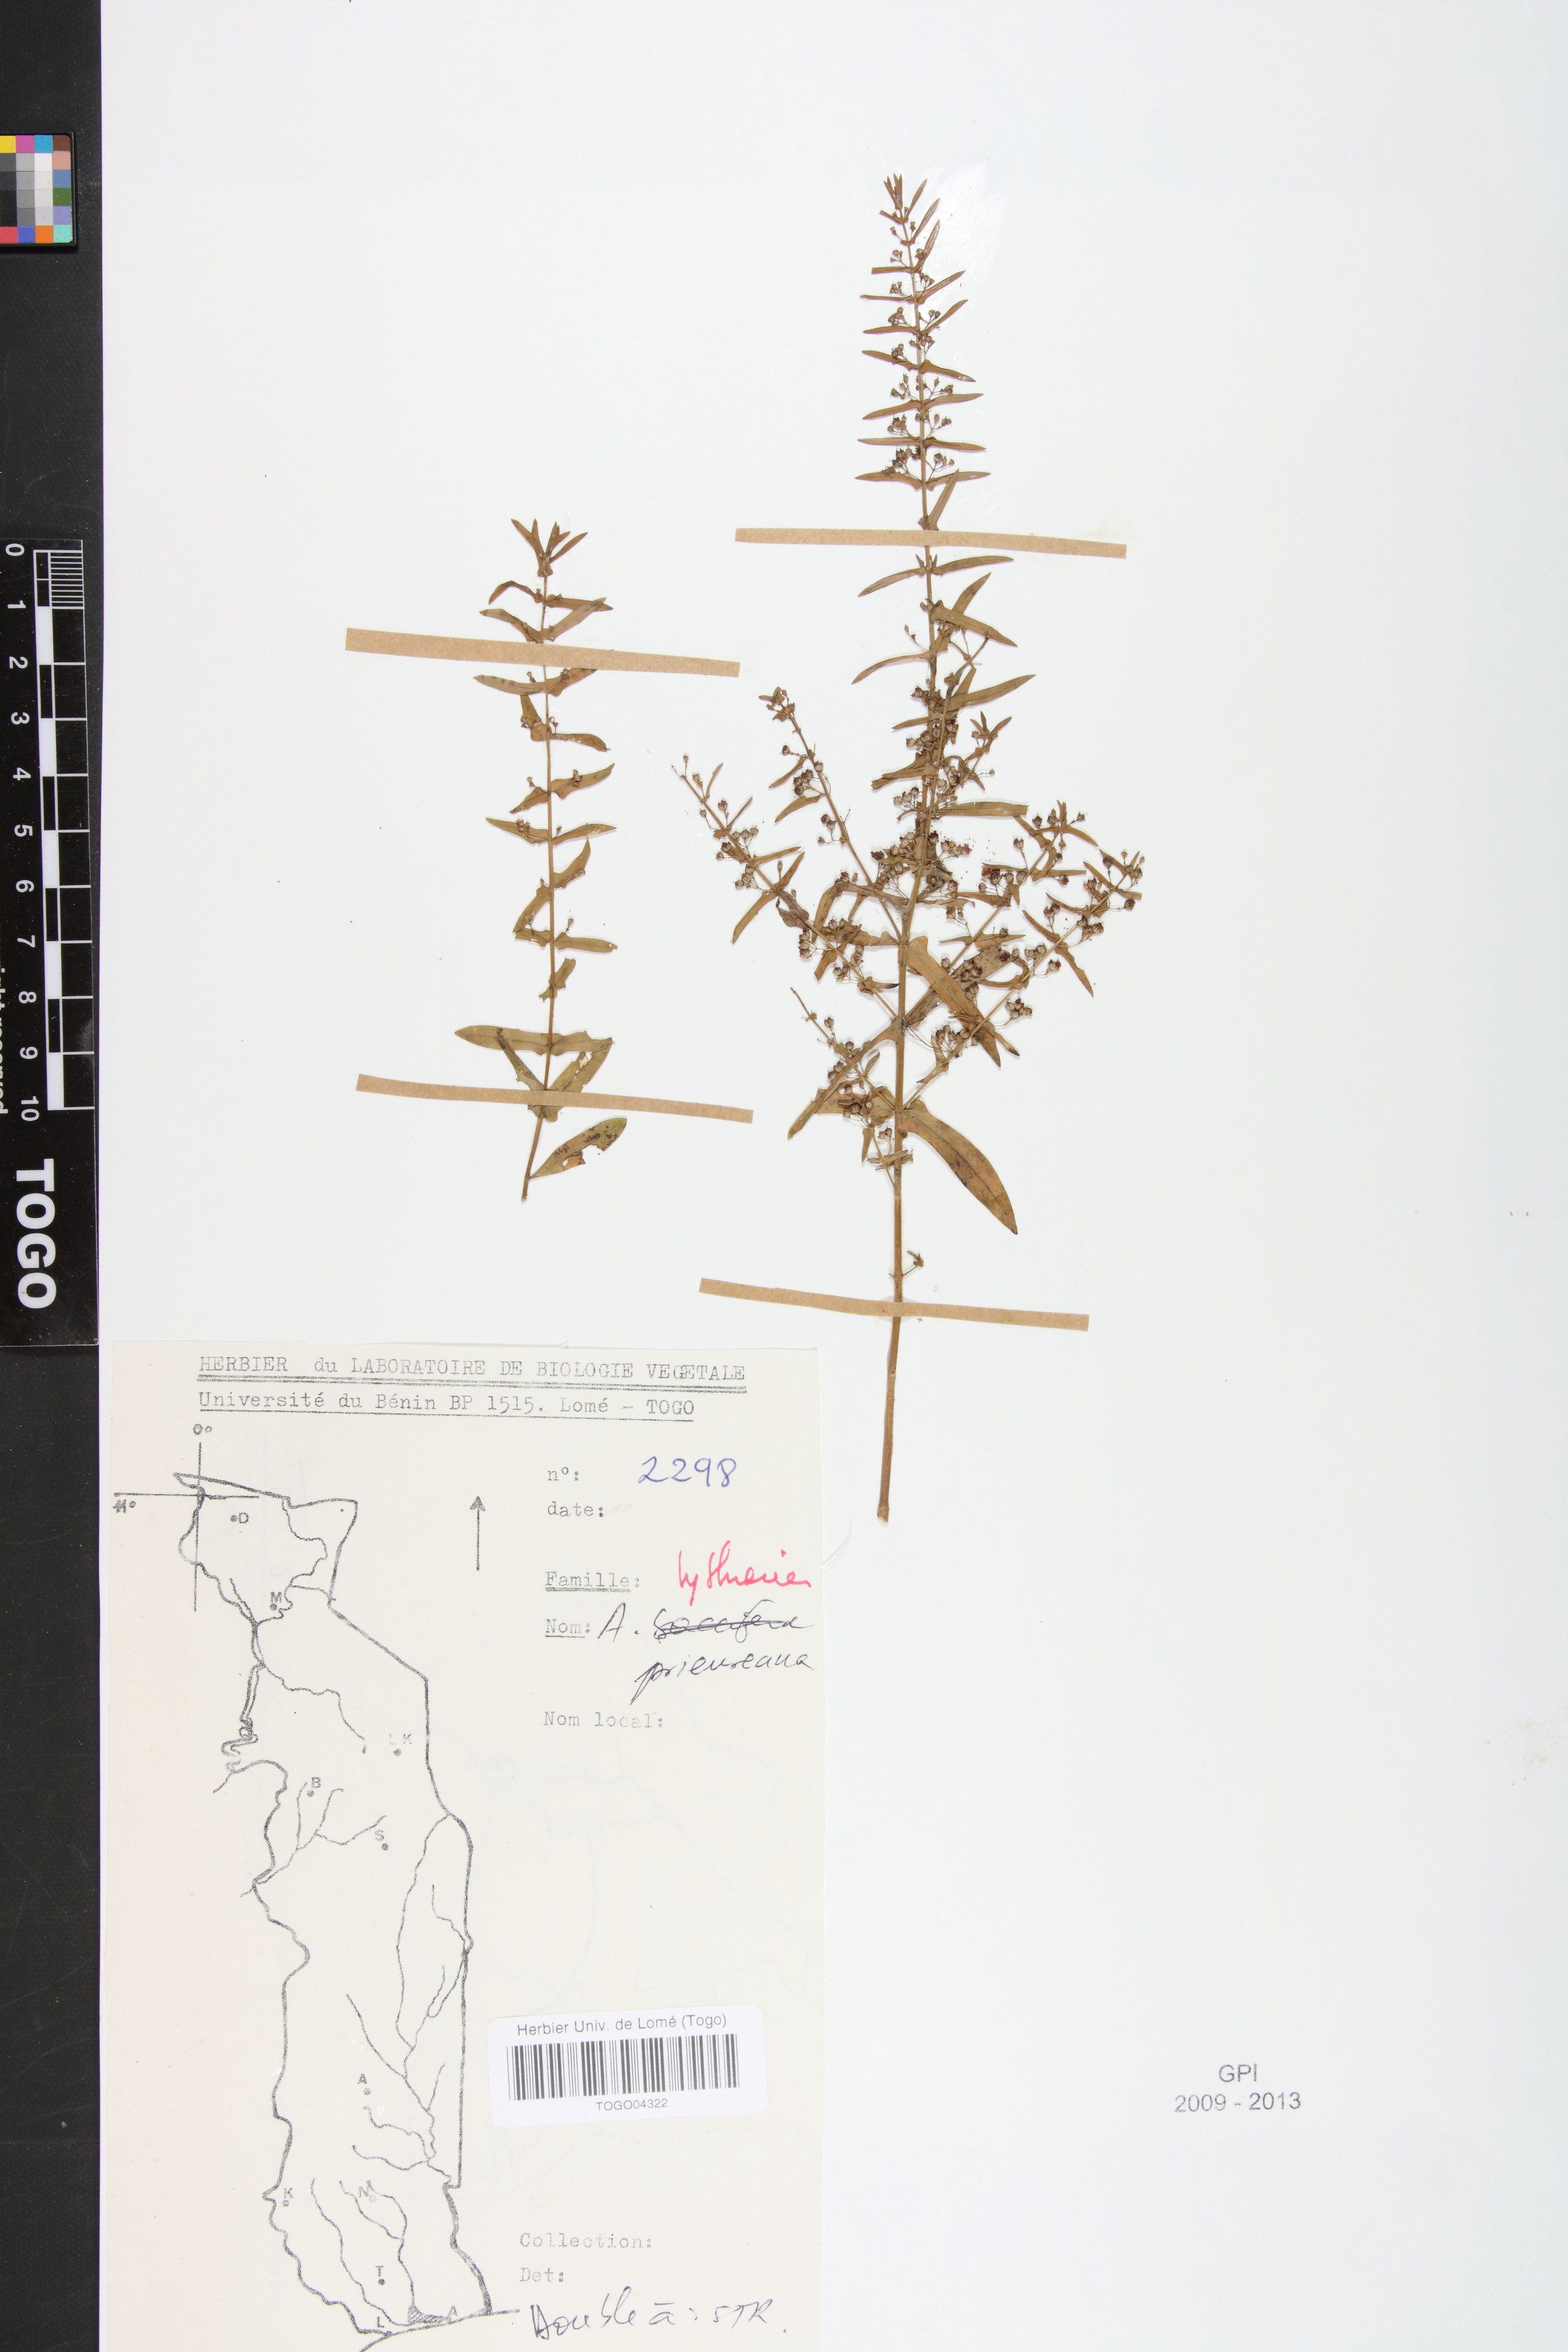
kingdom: Plantae
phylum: Tracheophyta
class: Magnoliopsida
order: Myrtales
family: Lythraceae
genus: Ammannia
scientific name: Ammannia prieureana
